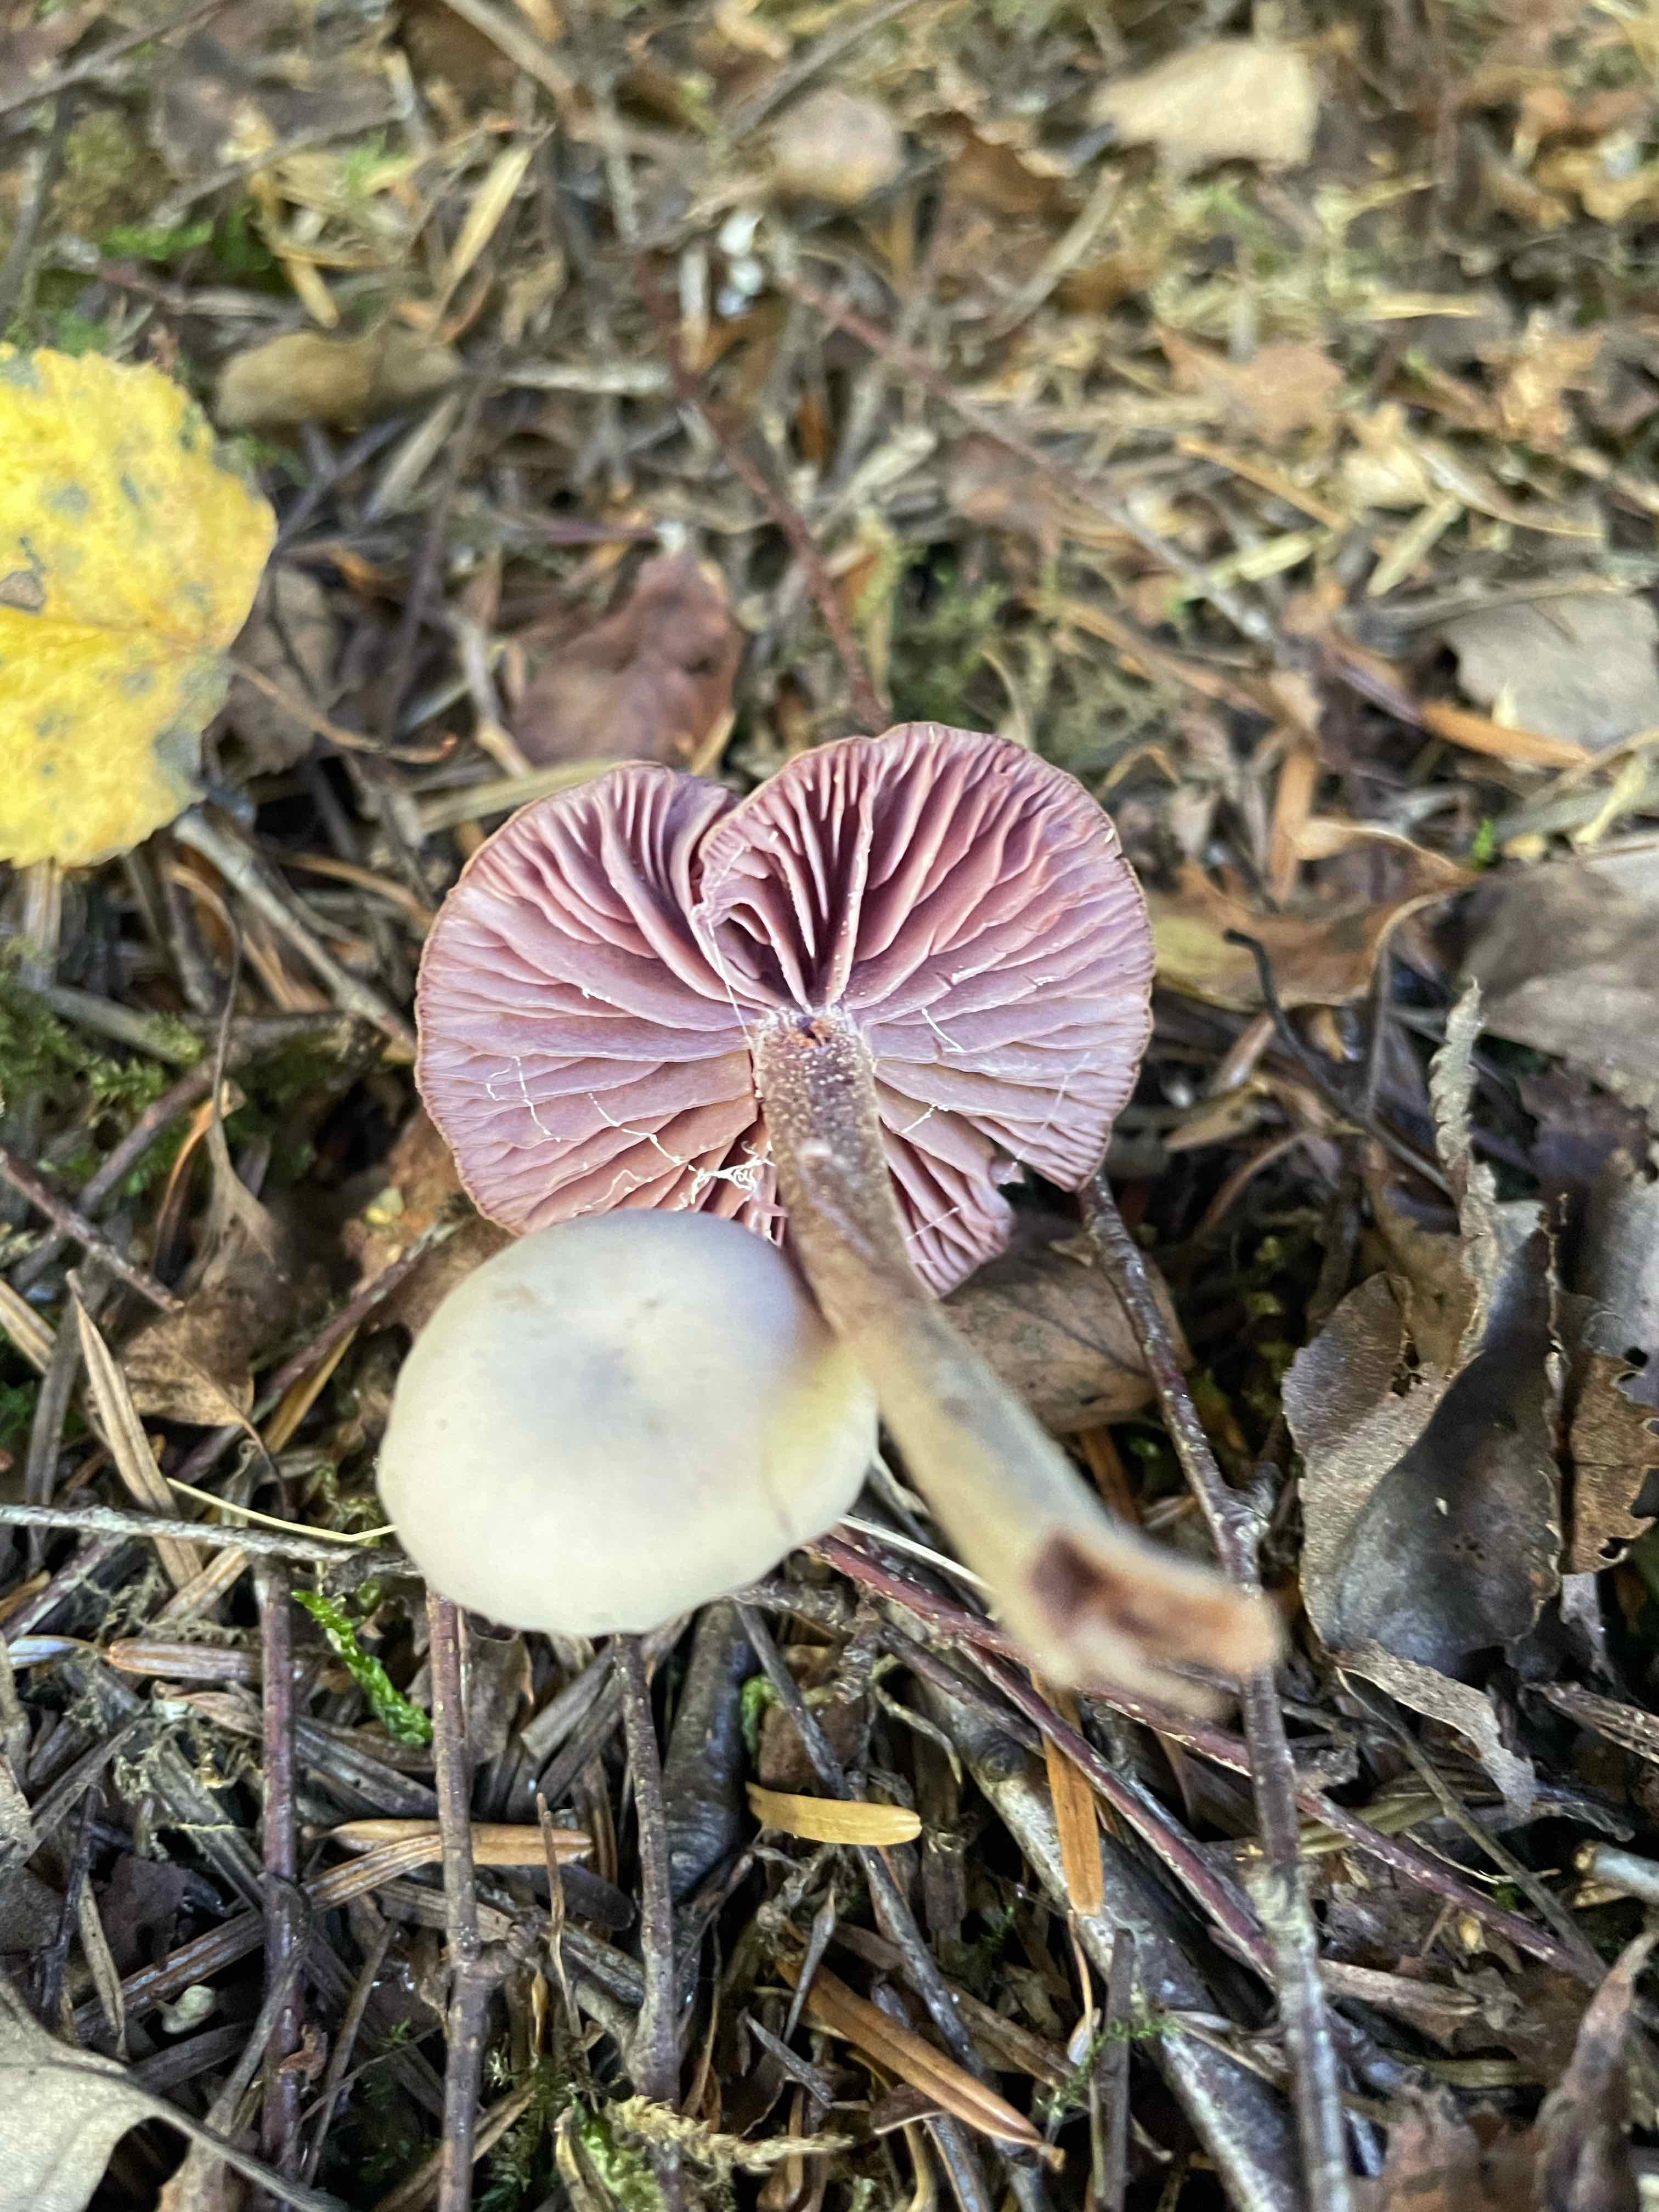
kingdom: Fungi
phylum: Basidiomycota
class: Agaricomycetes
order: Agaricales
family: Hydnangiaceae
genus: Laccaria
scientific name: Laccaria amethystina
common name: violet ametysthat
